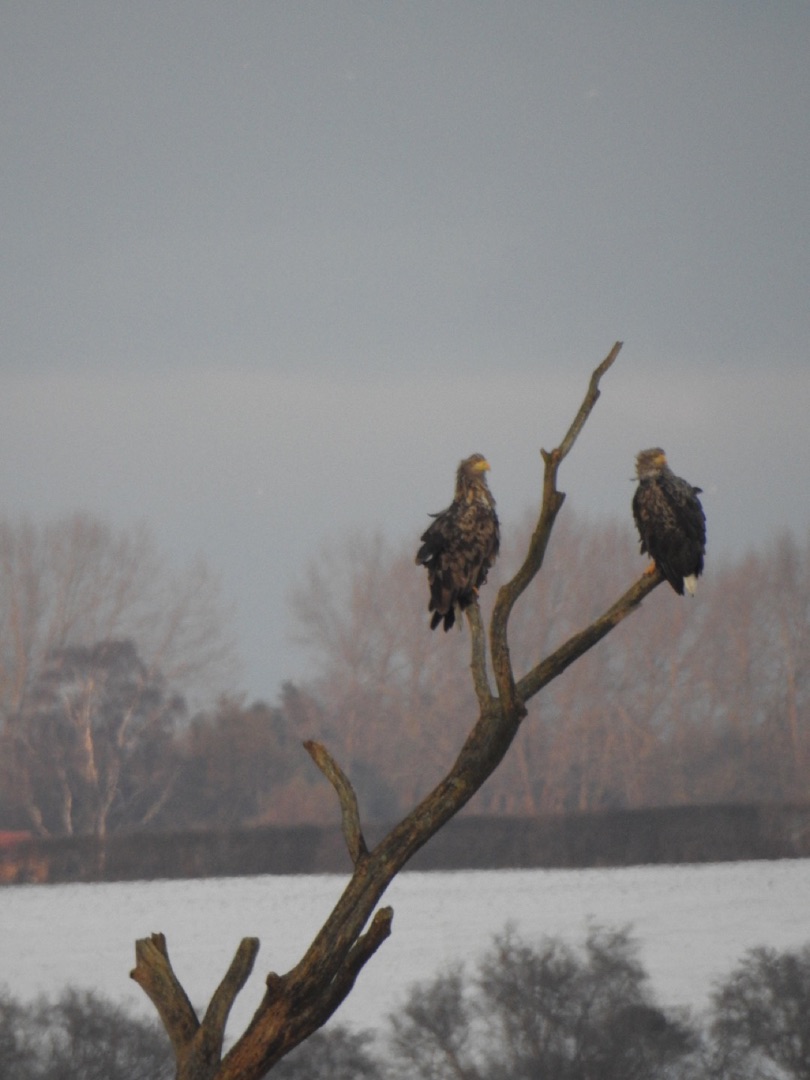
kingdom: Animalia
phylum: Chordata
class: Aves
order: Accipitriformes
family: Accipitridae
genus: Haliaeetus
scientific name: Haliaeetus albicilla
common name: Havørn
